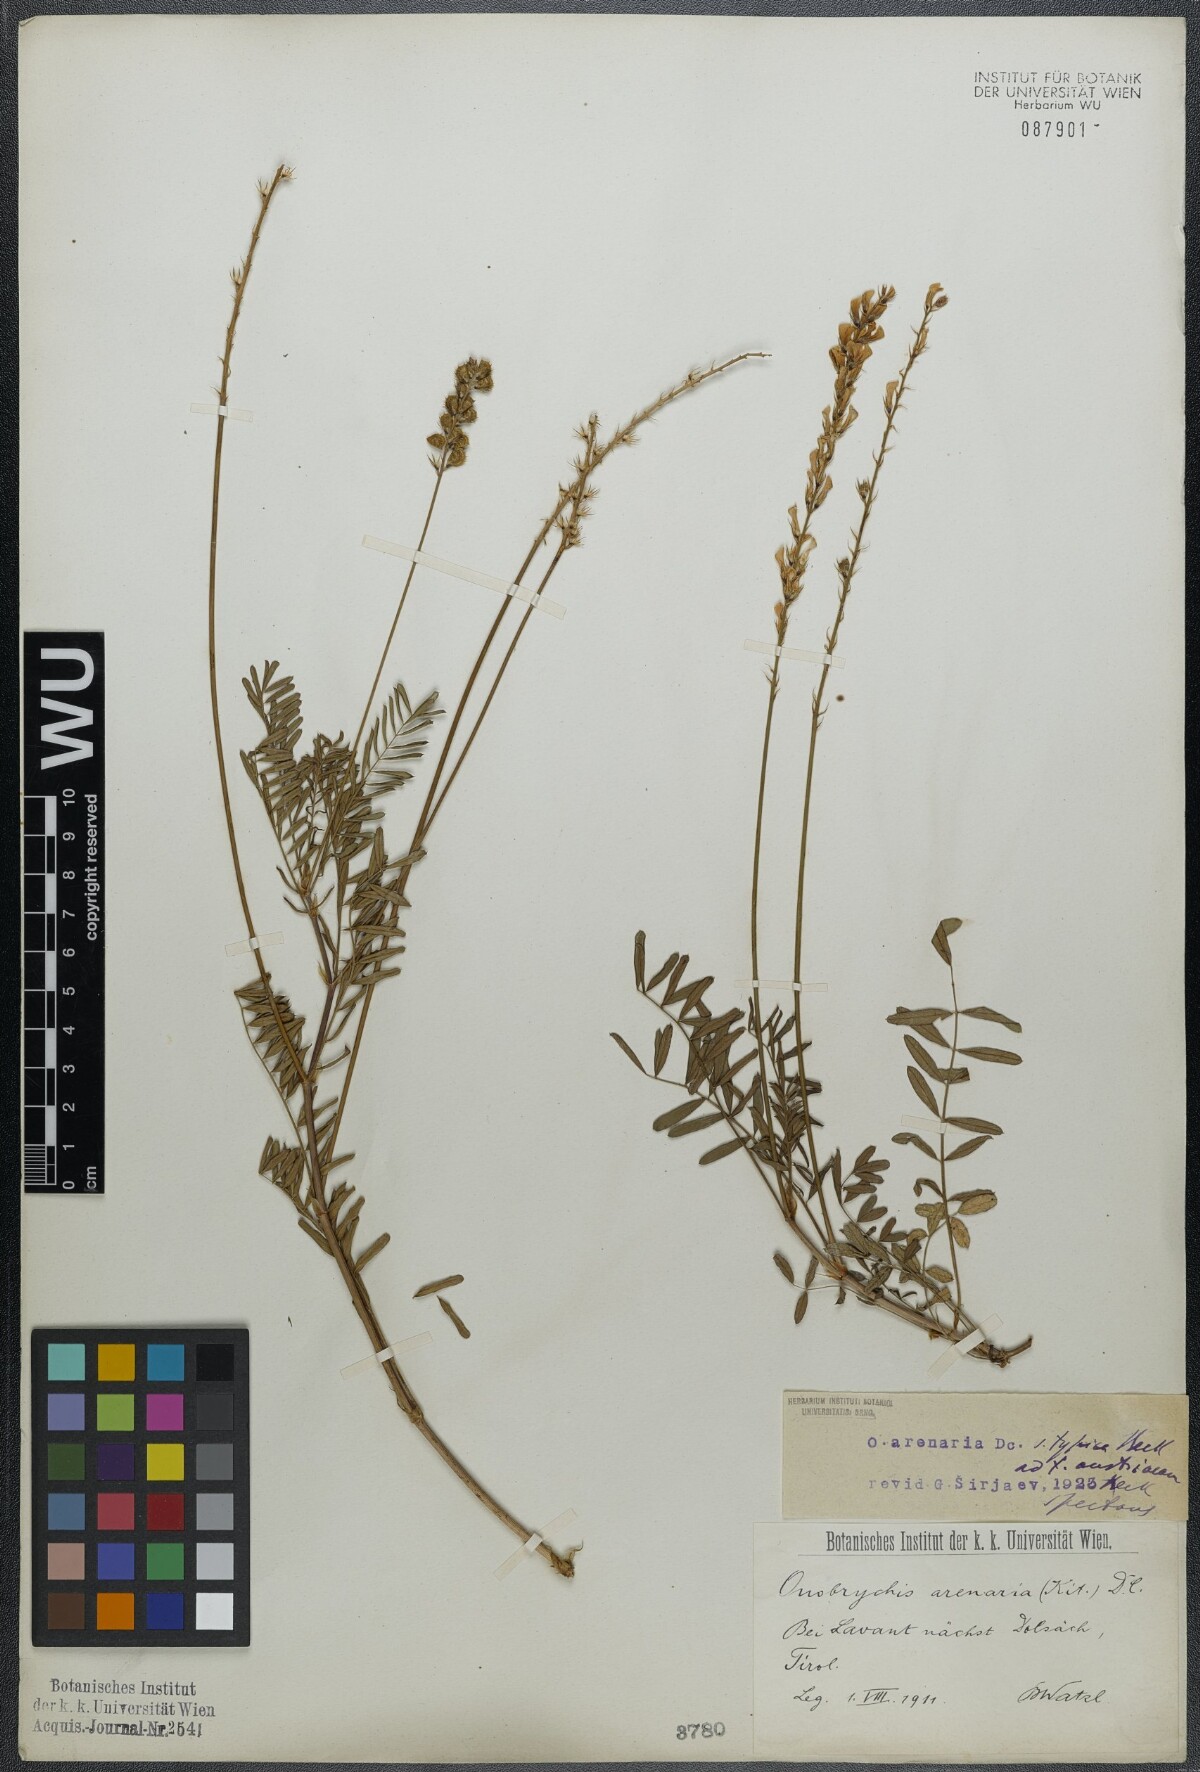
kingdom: Plantae
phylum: Tracheophyta
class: Magnoliopsida
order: Fabales
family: Fabaceae
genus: Onobrychis
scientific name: Onobrychis arenaria
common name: Sand esparcet
